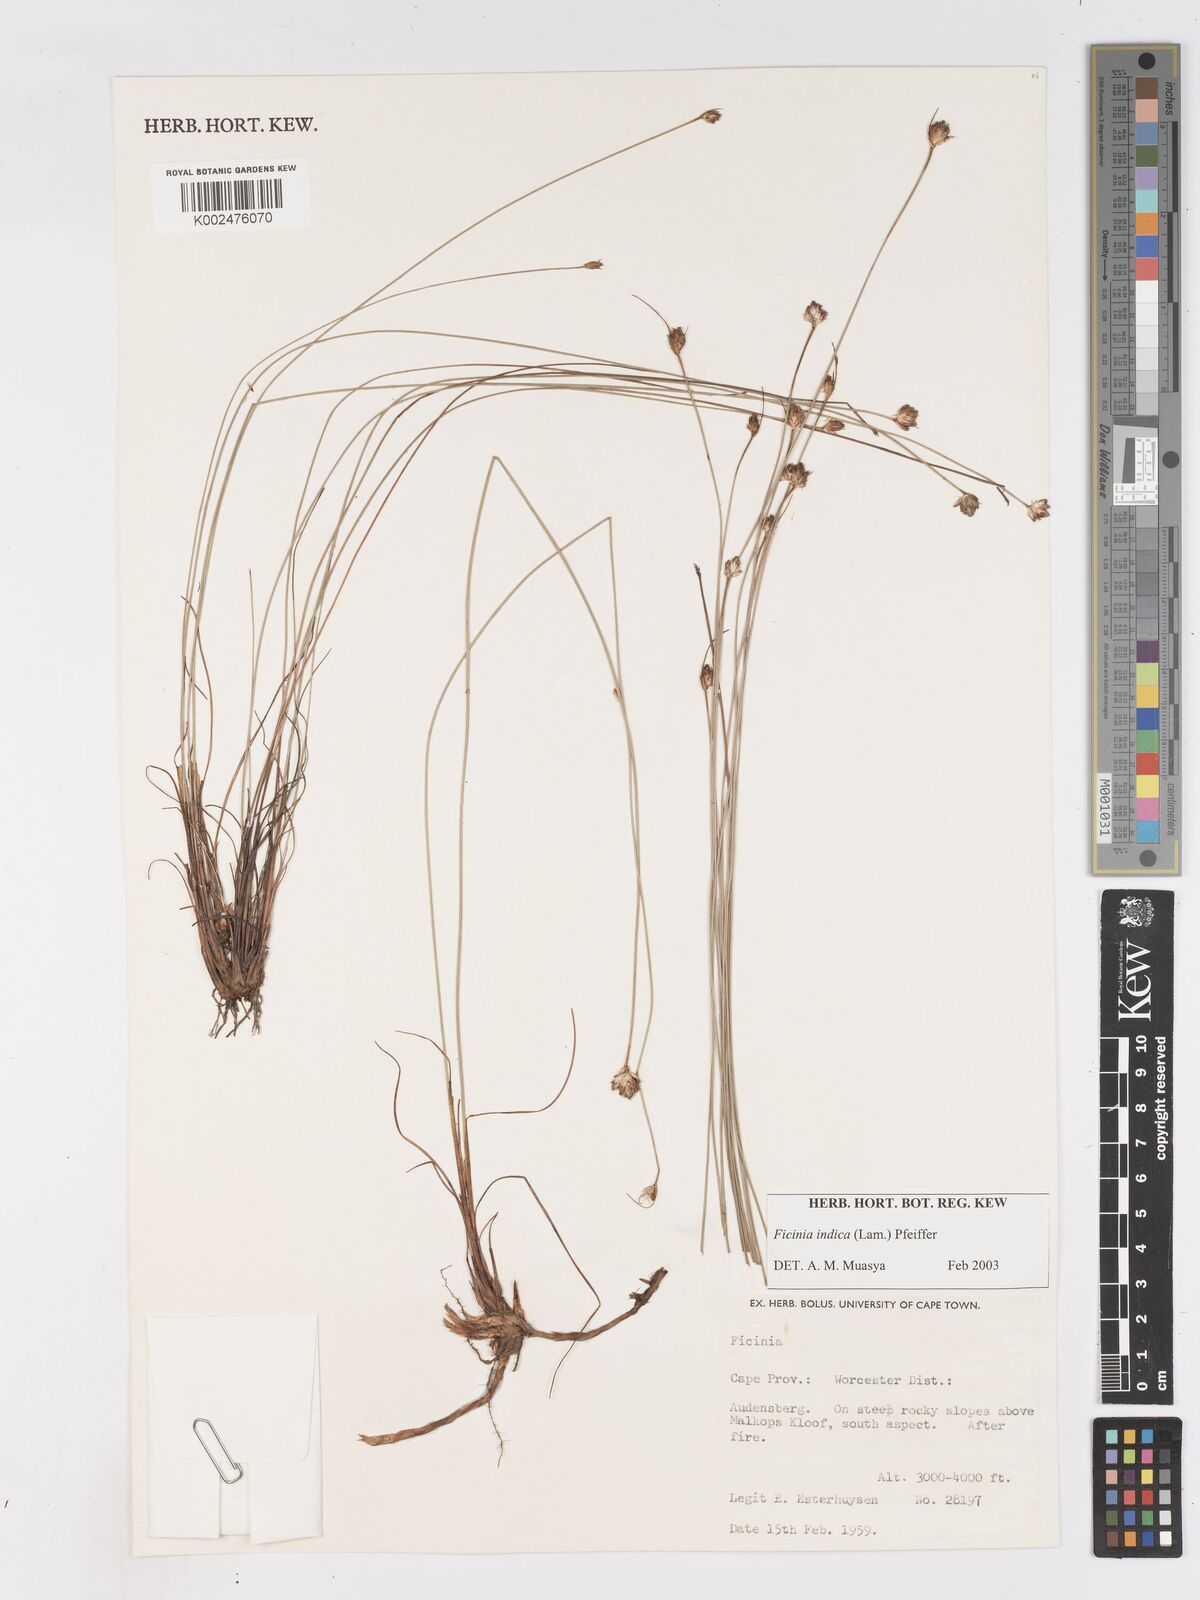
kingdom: Plantae
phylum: Tracheophyta
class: Liliopsida
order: Poales
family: Cyperaceae
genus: Ficinia
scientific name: Ficinia indica
